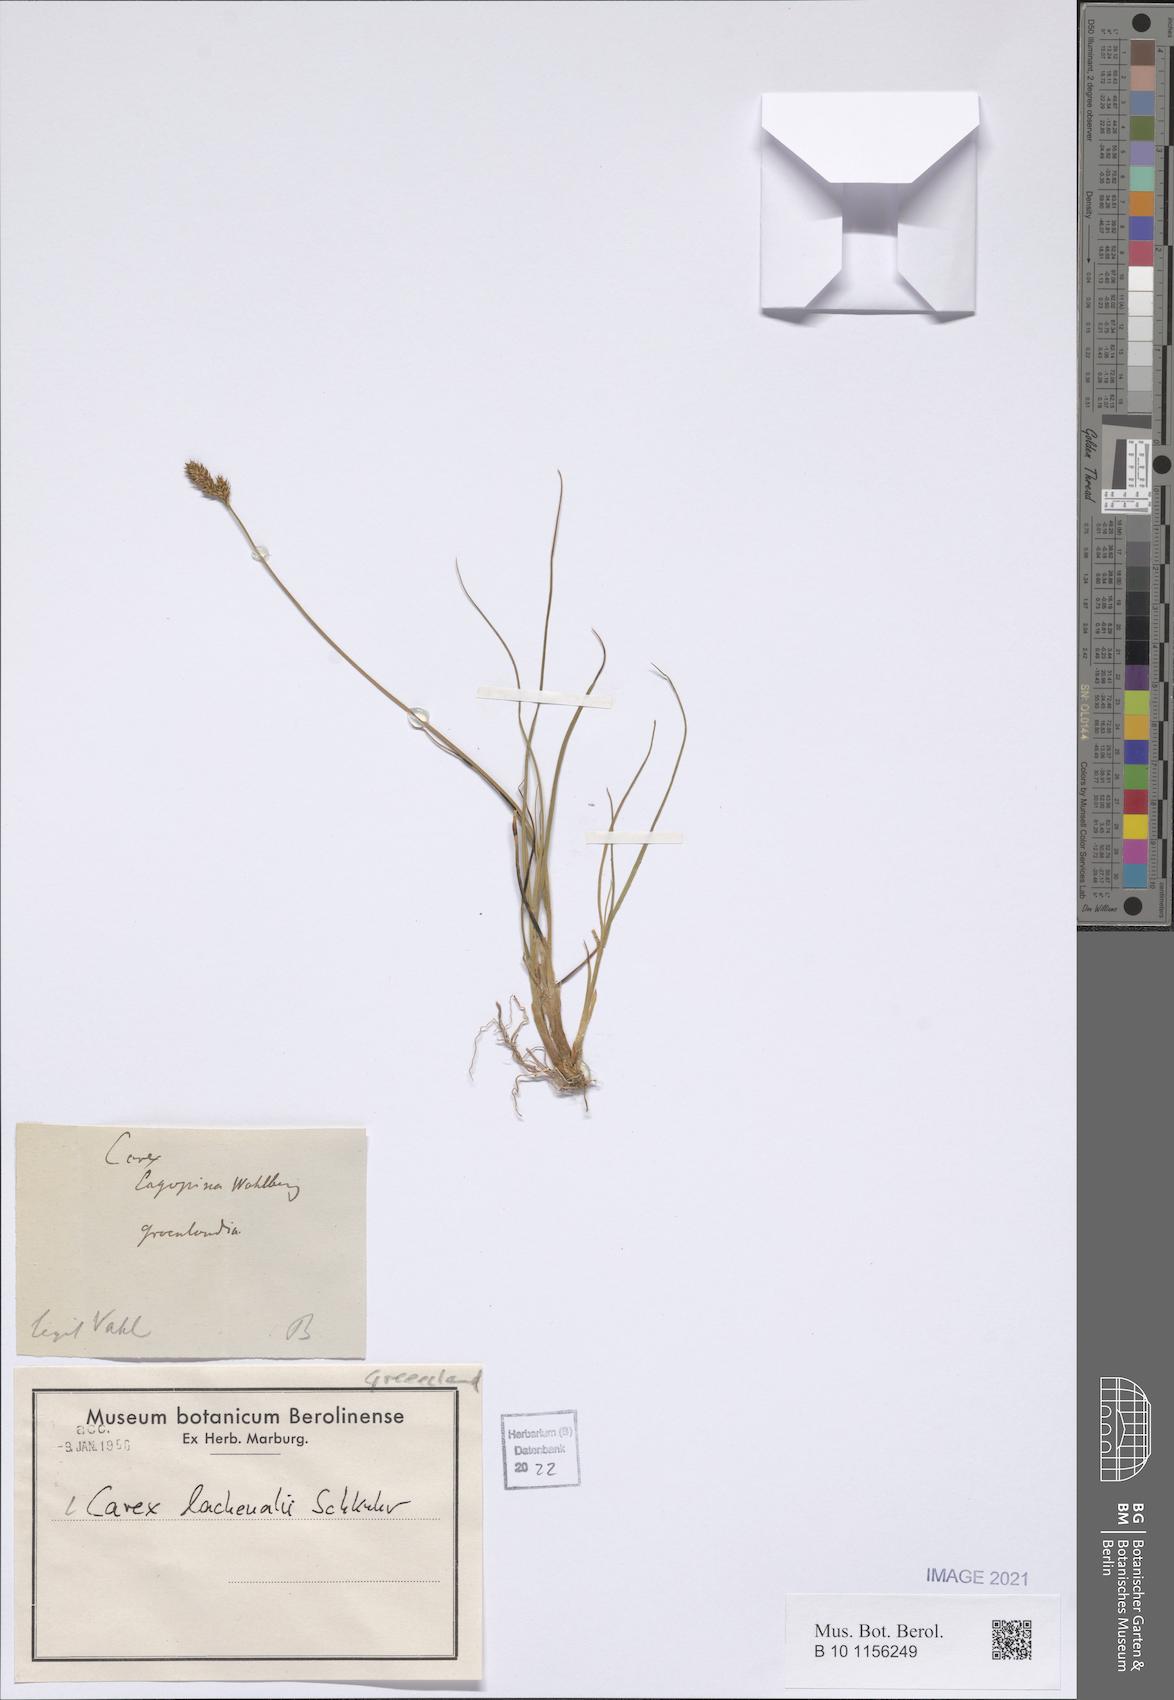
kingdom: Plantae
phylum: Tracheophyta
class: Liliopsida
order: Poales
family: Cyperaceae
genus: Carex
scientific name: Carex lachenalii
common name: Hare's-foot sedge
